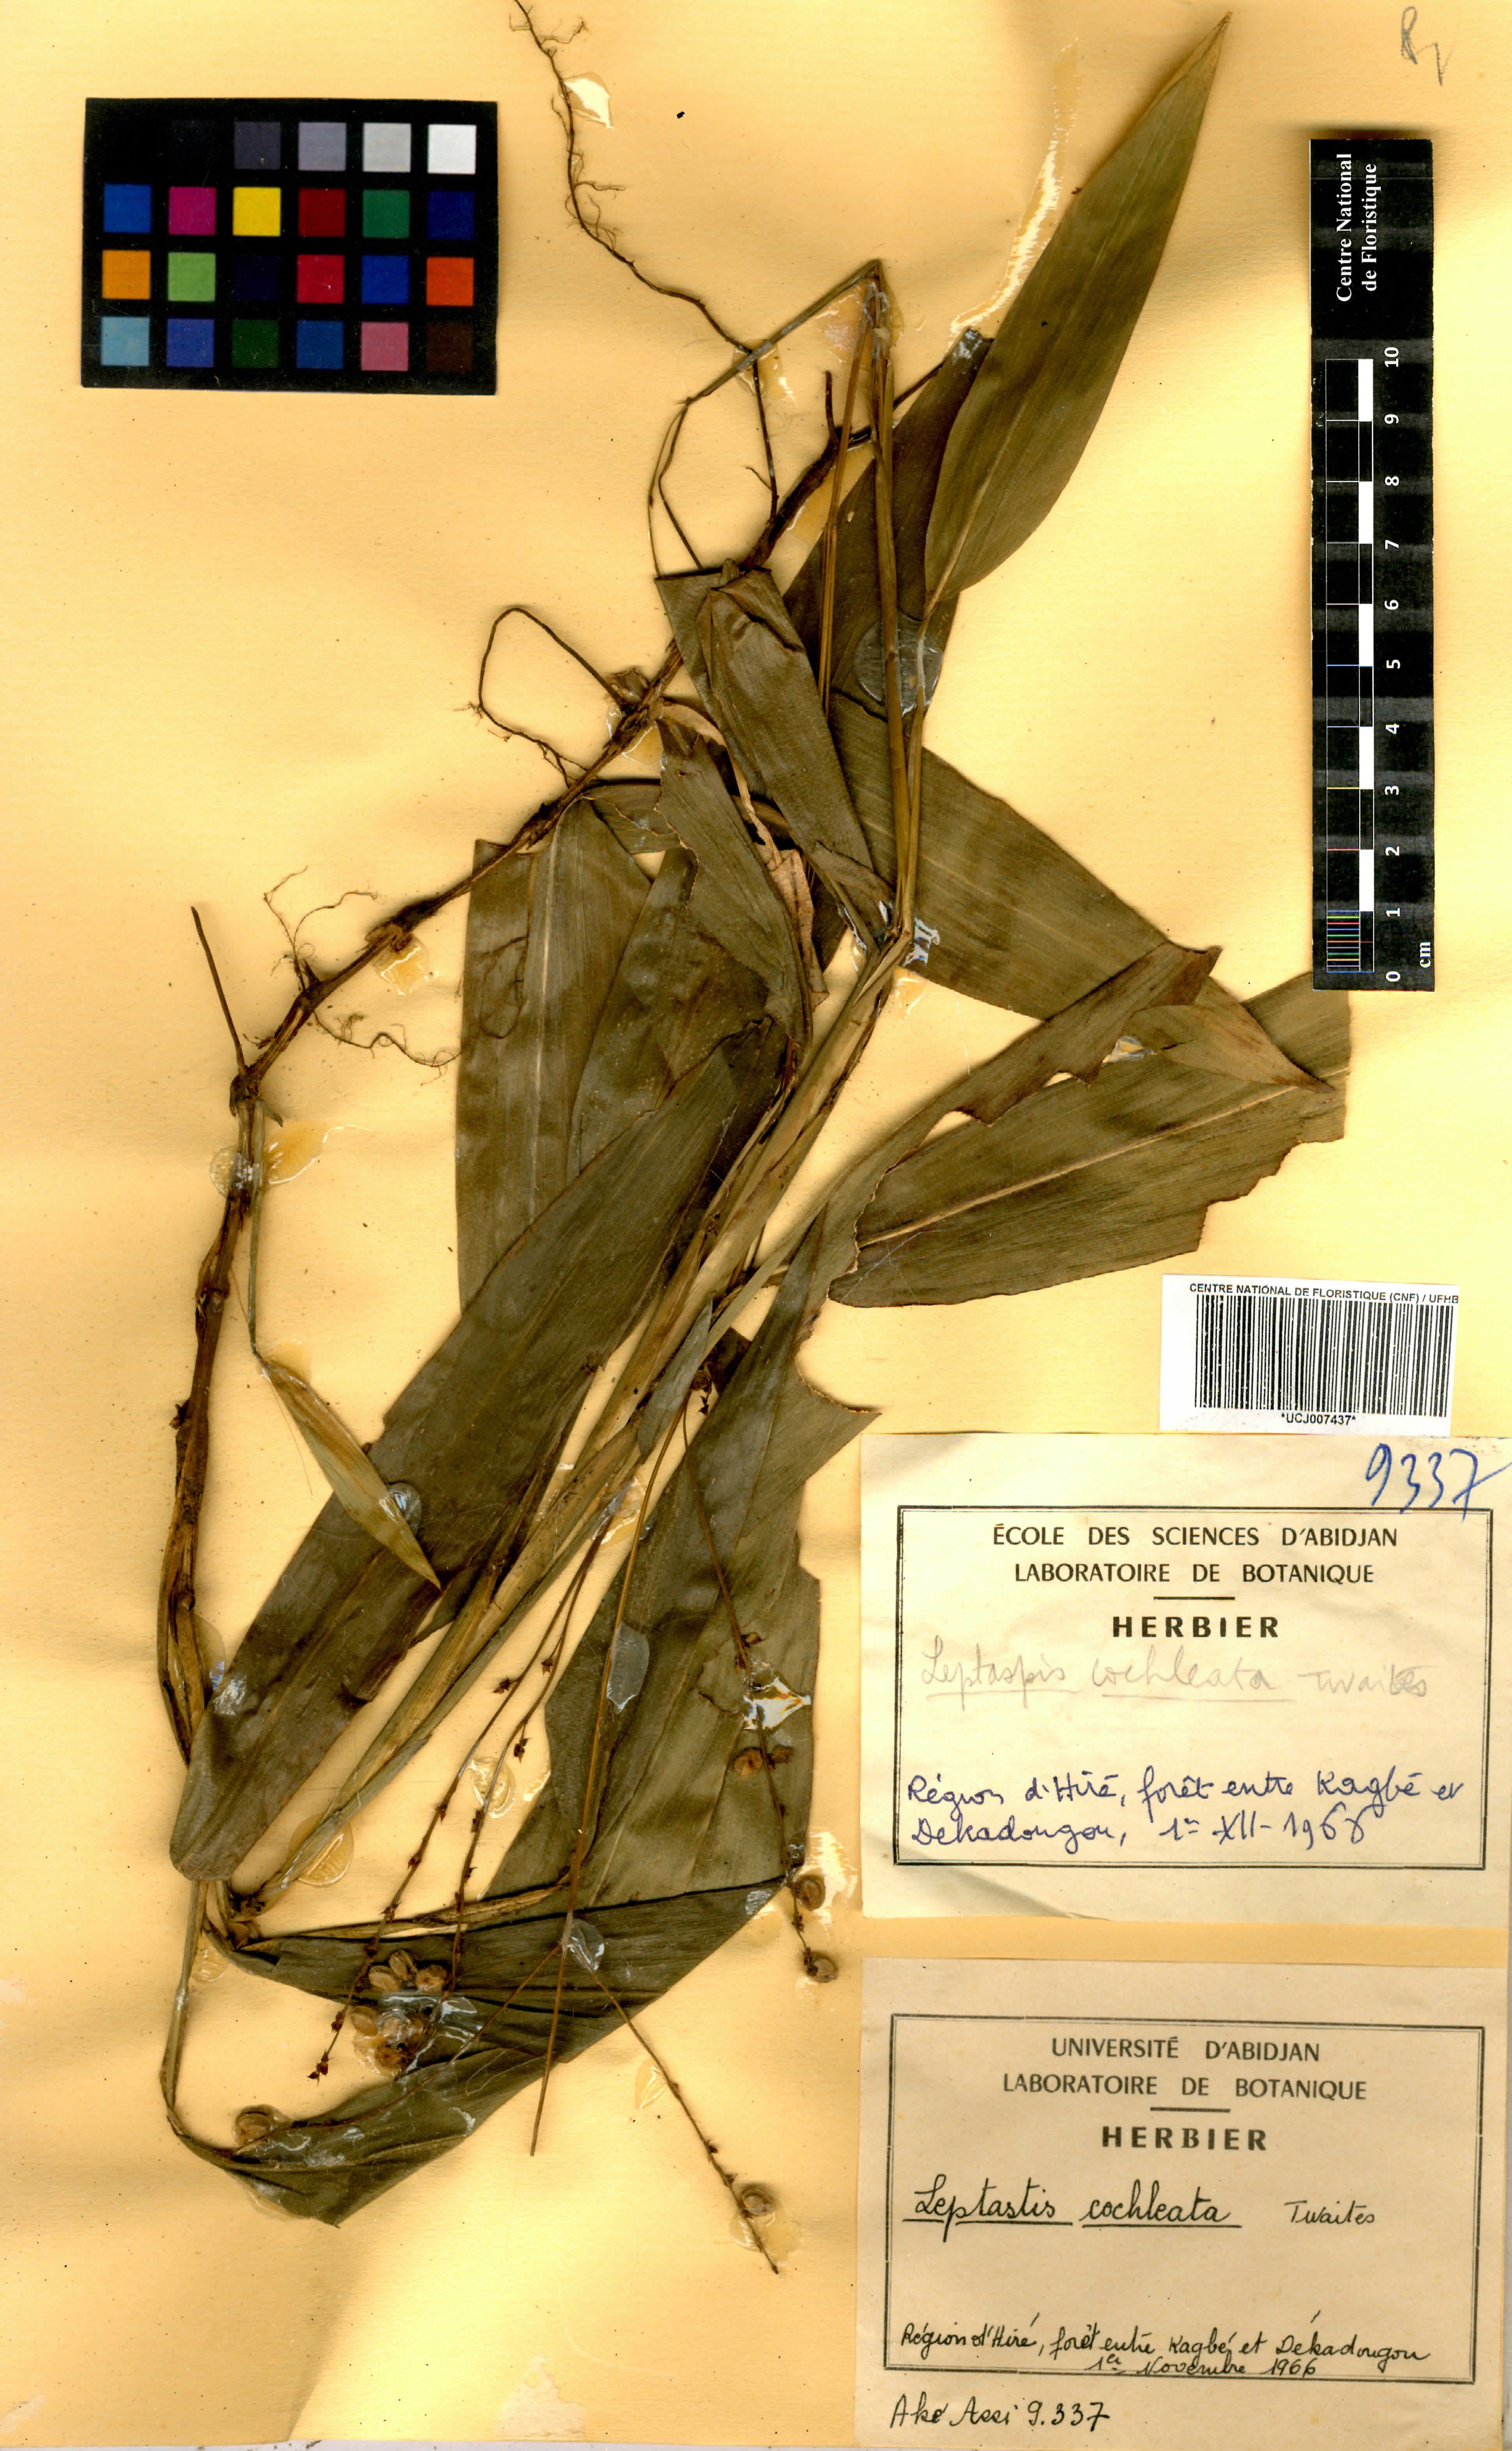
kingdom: Plantae
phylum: Tracheophyta
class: Liliopsida
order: Poales
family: Poaceae
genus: Leptaspis
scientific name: Leptaspis zeylanica
